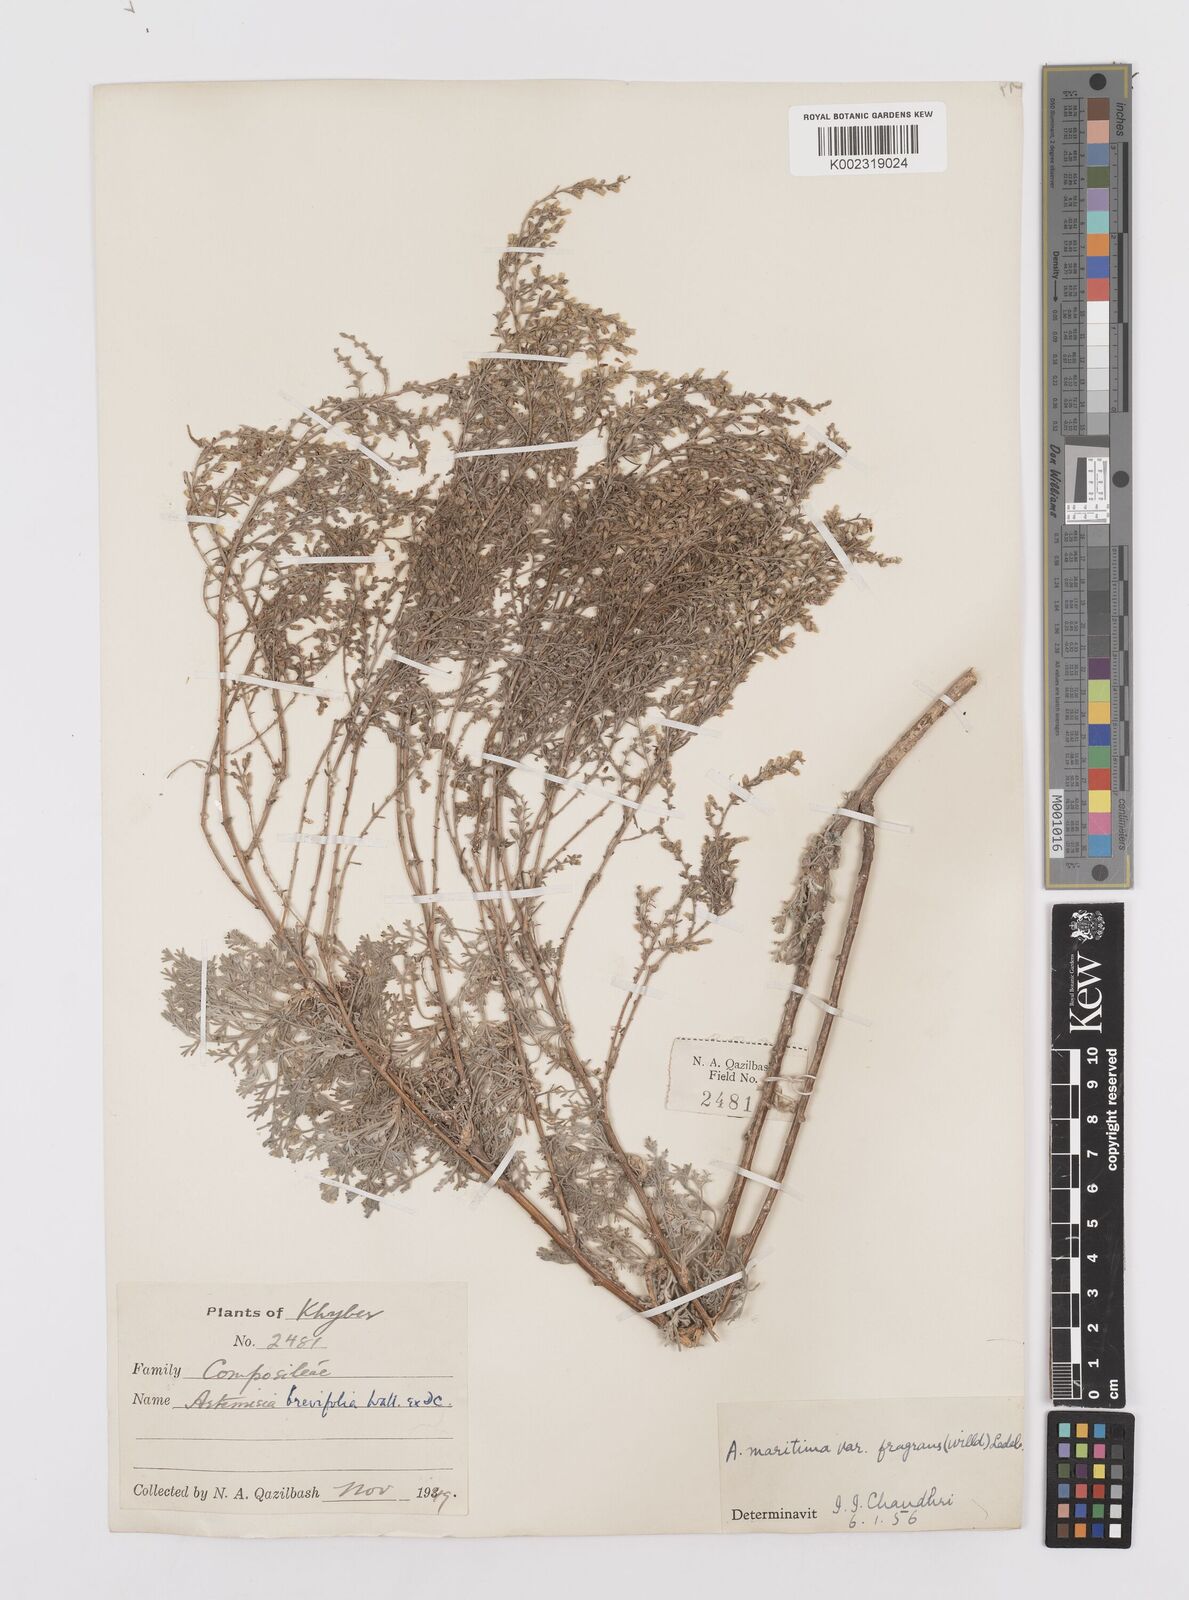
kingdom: Plantae
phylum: Tracheophyta
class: Magnoliopsida
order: Asterales
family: Asteraceae
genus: Artemisia
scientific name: Artemisia kurramensis
